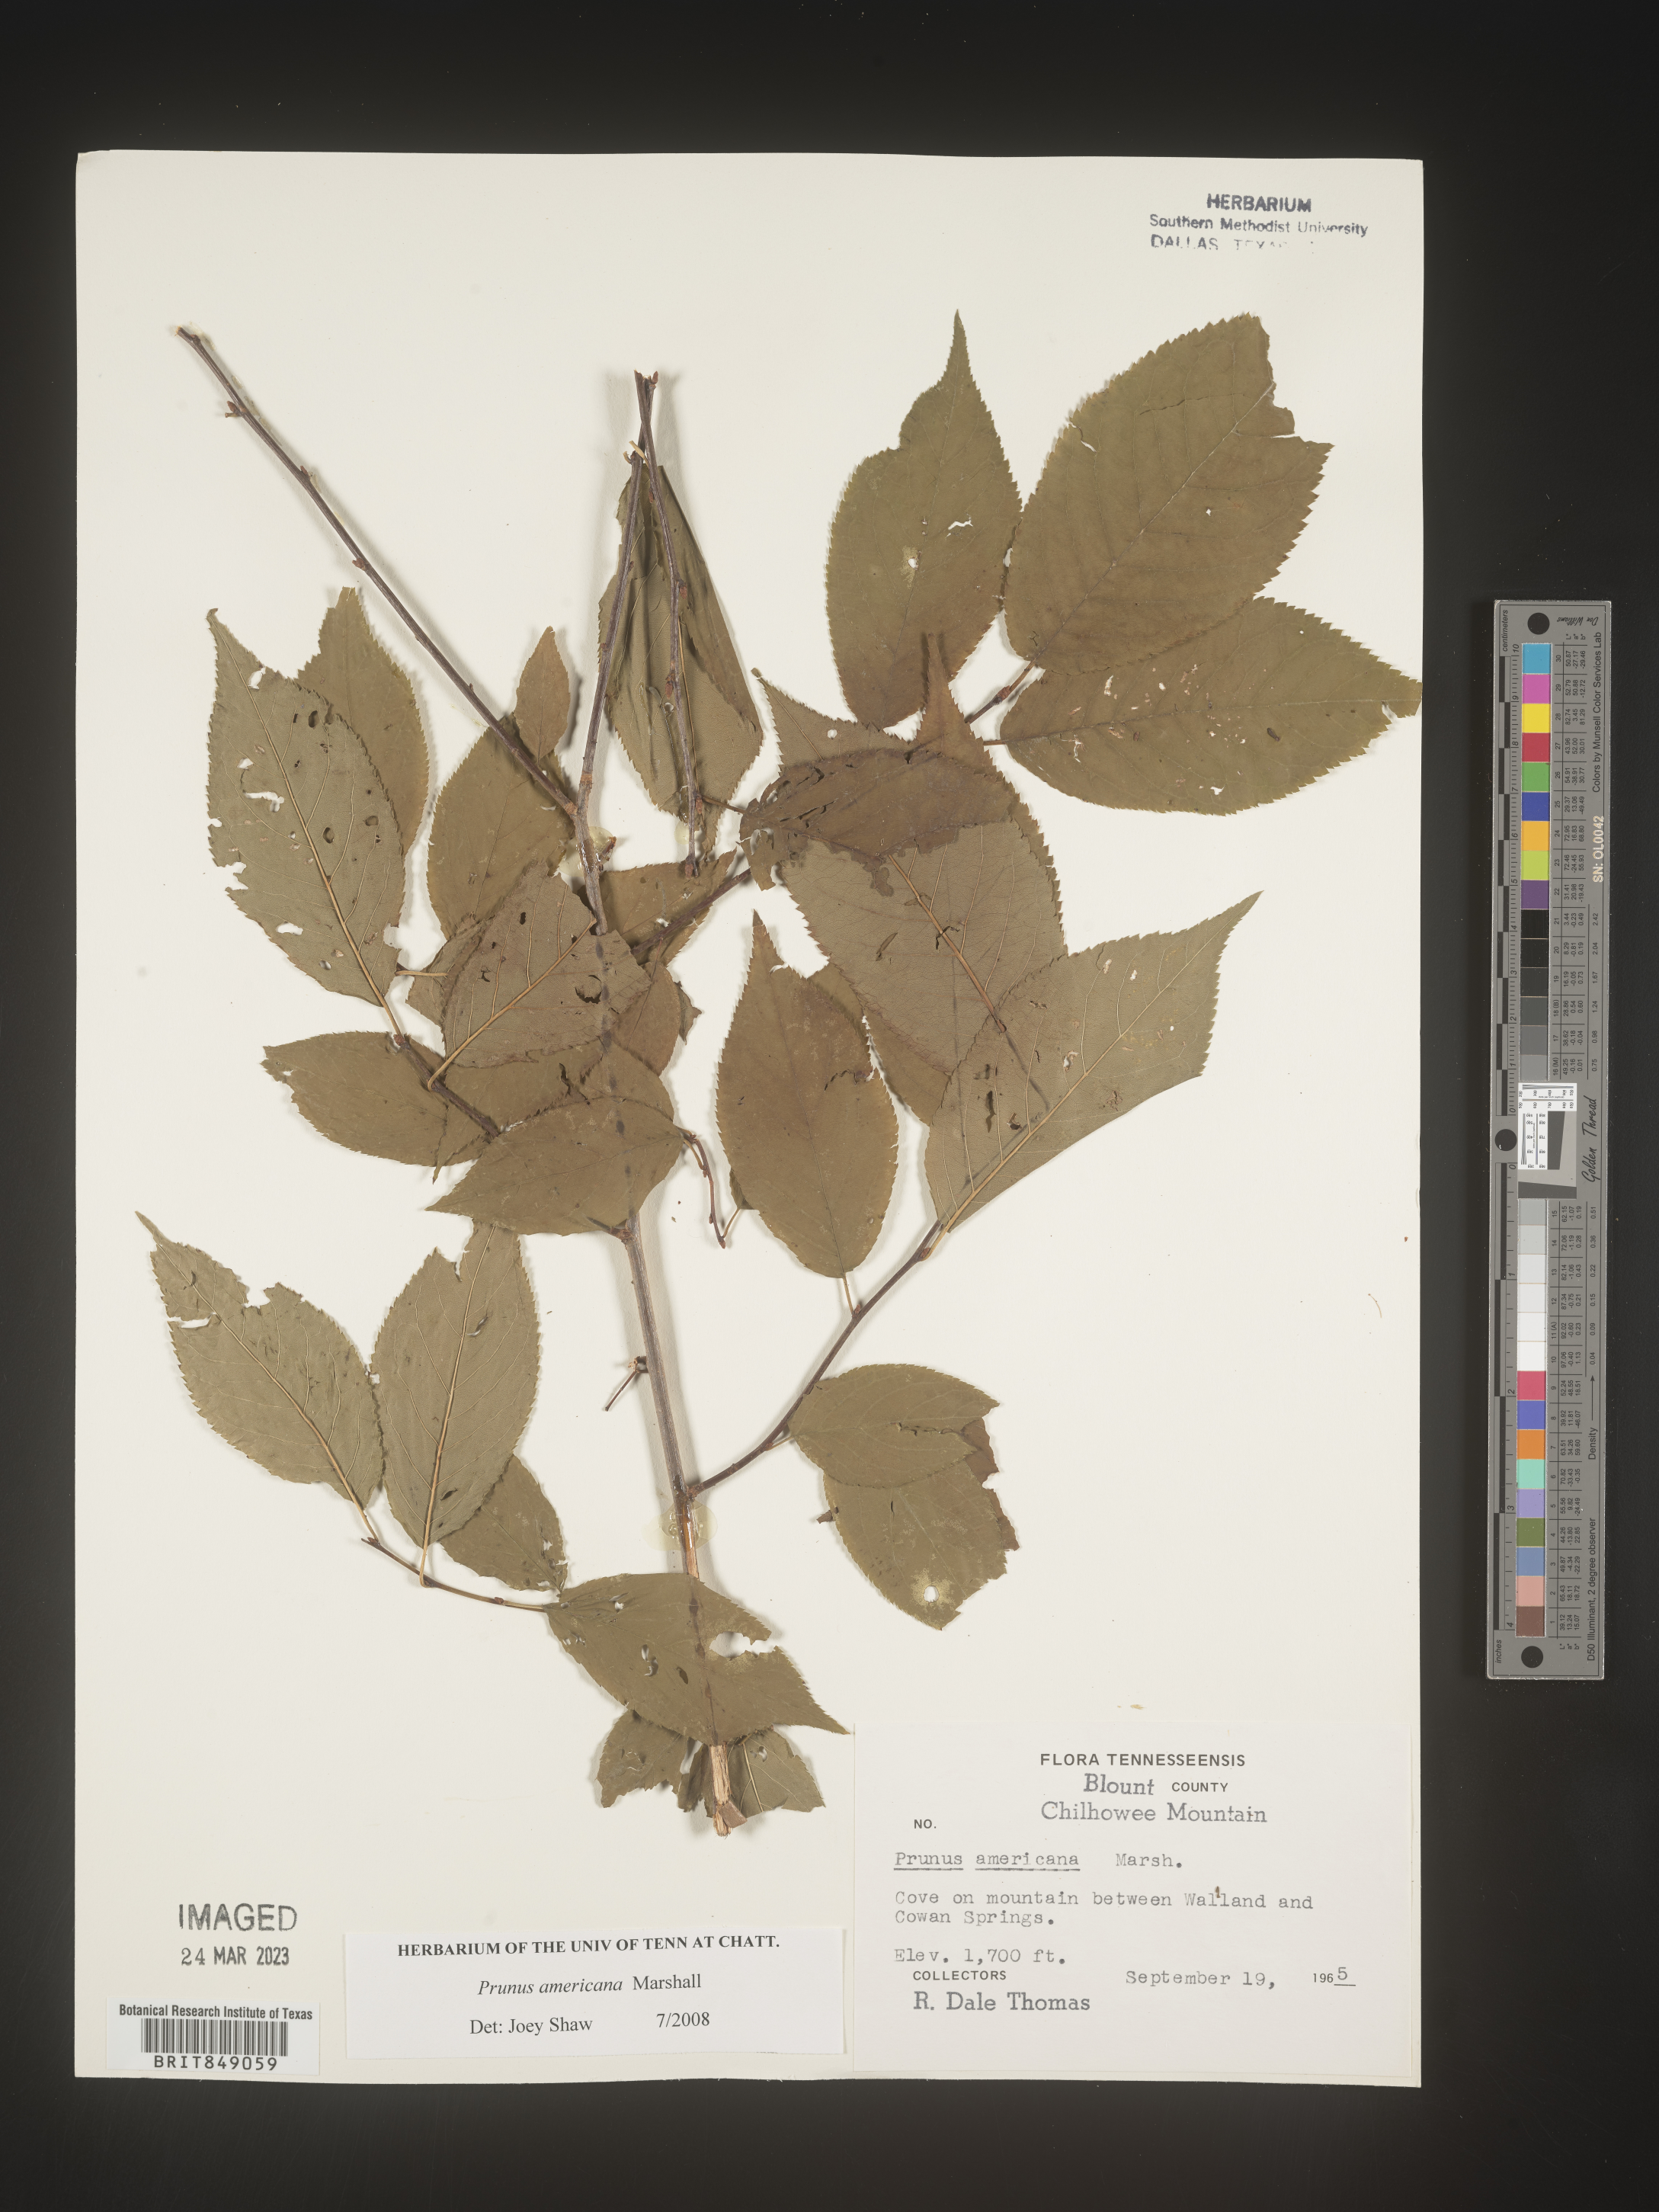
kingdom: Plantae
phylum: Tracheophyta
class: Magnoliopsida
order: Rosales
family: Rosaceae
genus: Prunus
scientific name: Prunus americana
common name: American plum
